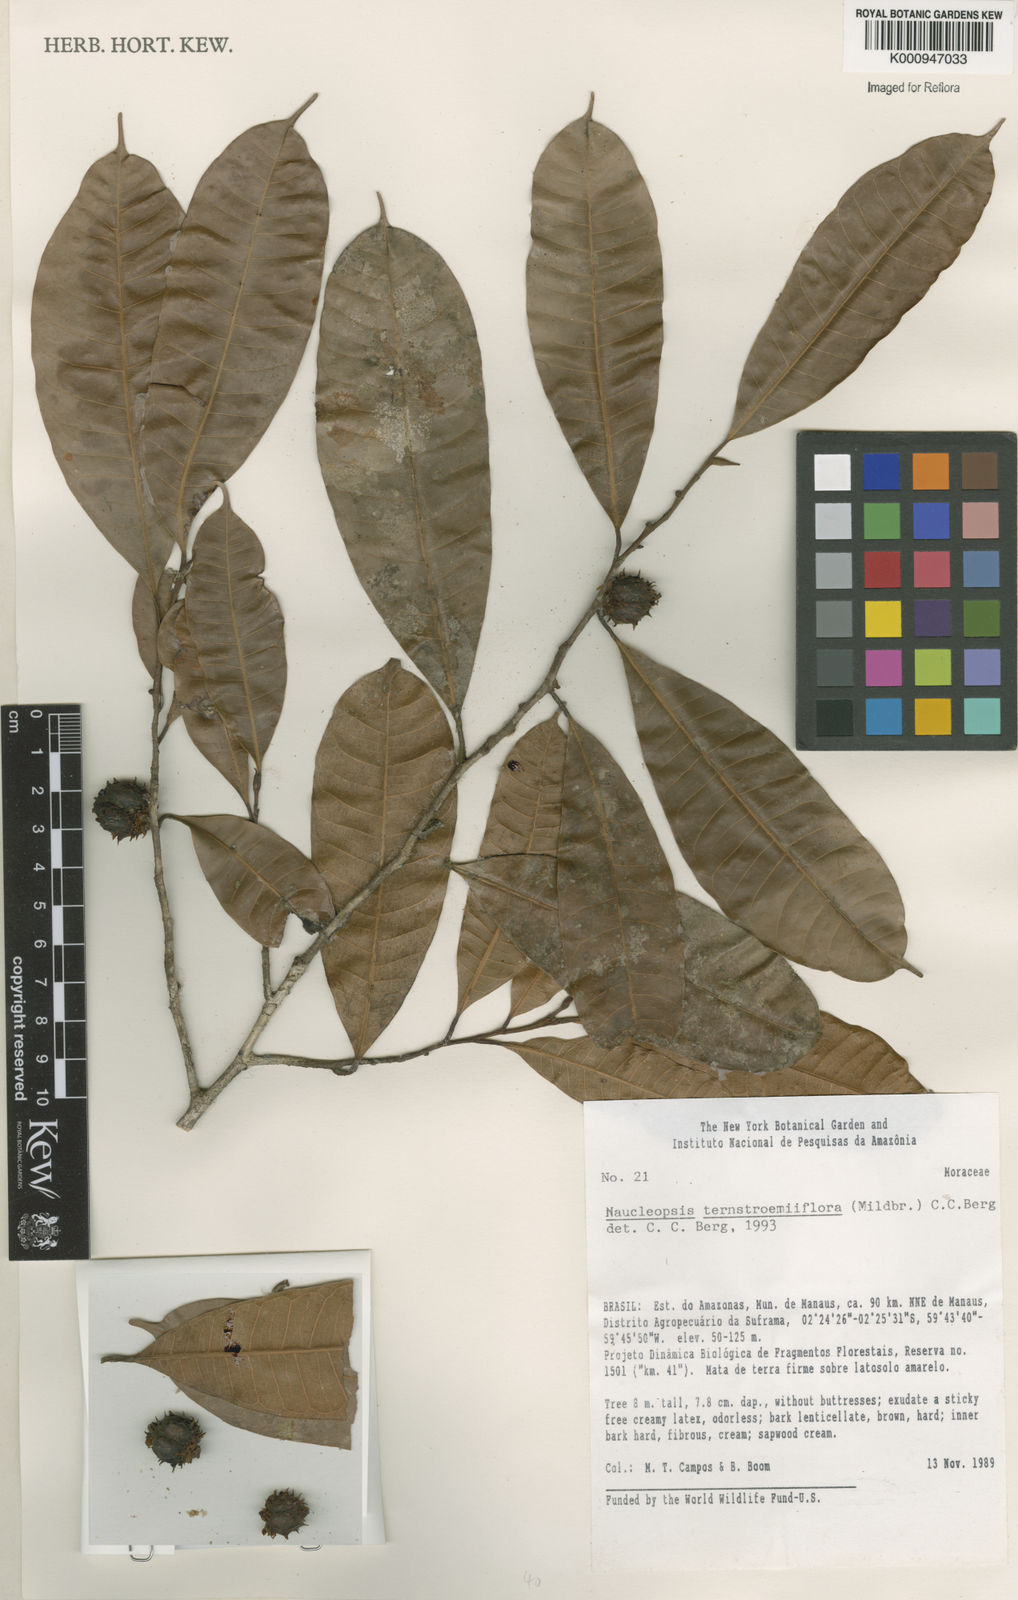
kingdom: Plantae
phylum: Tracheophyta
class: Magnoliopsida
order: Rosales
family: Moraceae
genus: Naucleopsis
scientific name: Naucleopsis ternstroemiiflora
